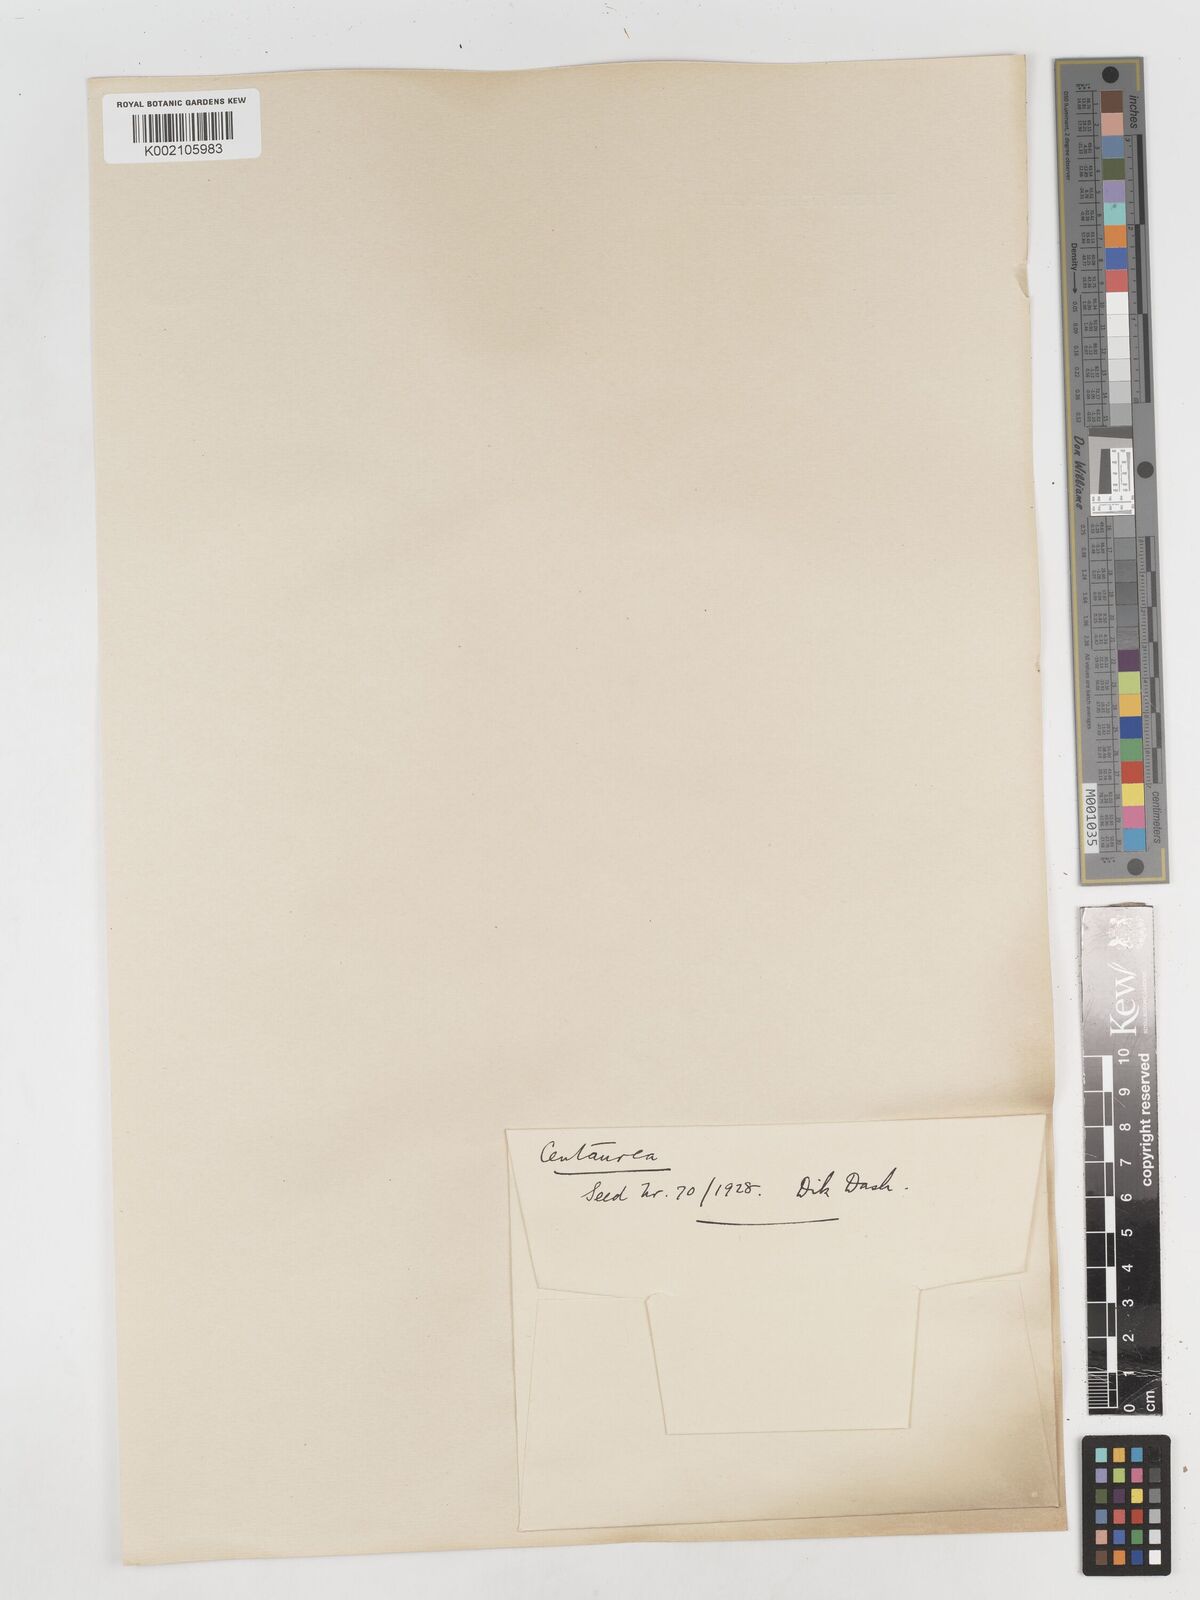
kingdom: Plantae
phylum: Tracheophyta
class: Magnoliopsida
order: Asterales
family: Asteraceae
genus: Centaurea
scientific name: Centaurea
